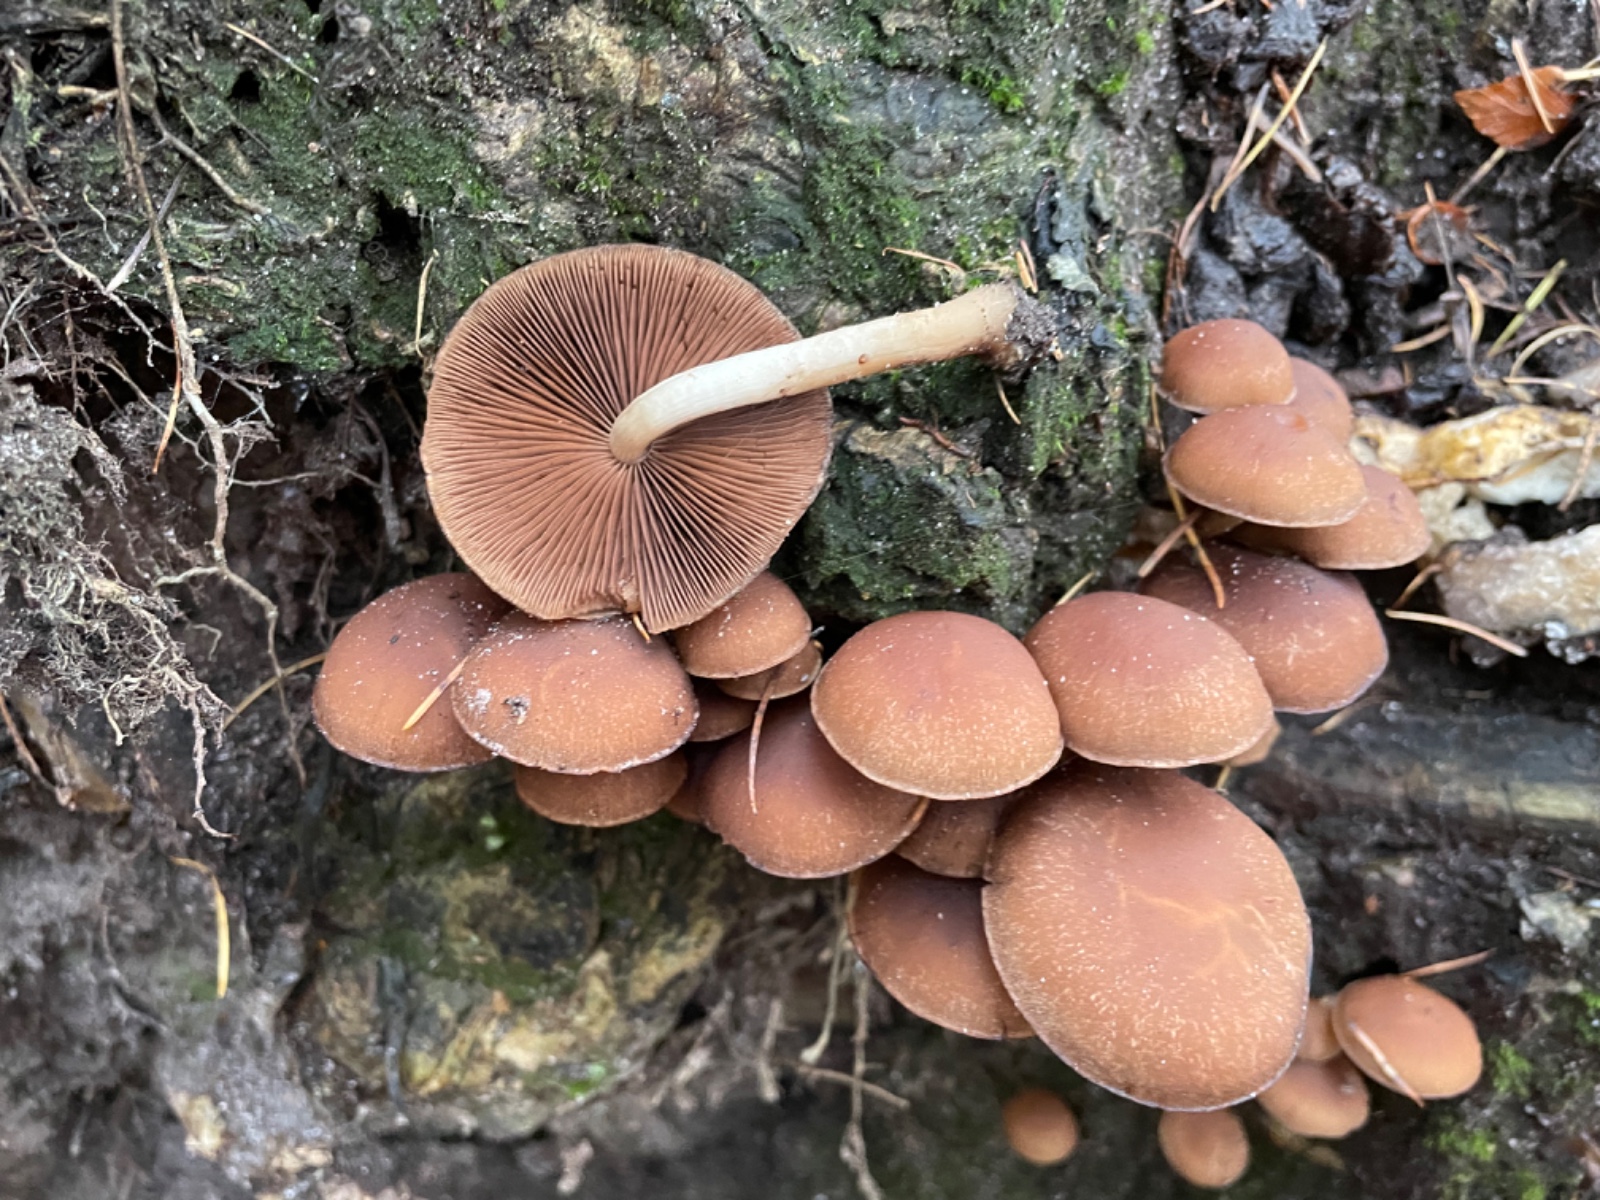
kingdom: Fungi
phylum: Basidiomycota
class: Agaricomycetes
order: Agaricales
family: Psathyrellaceae
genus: Psathyrella
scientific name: Psathyrella piluliformis
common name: lysstokket mørkhat
